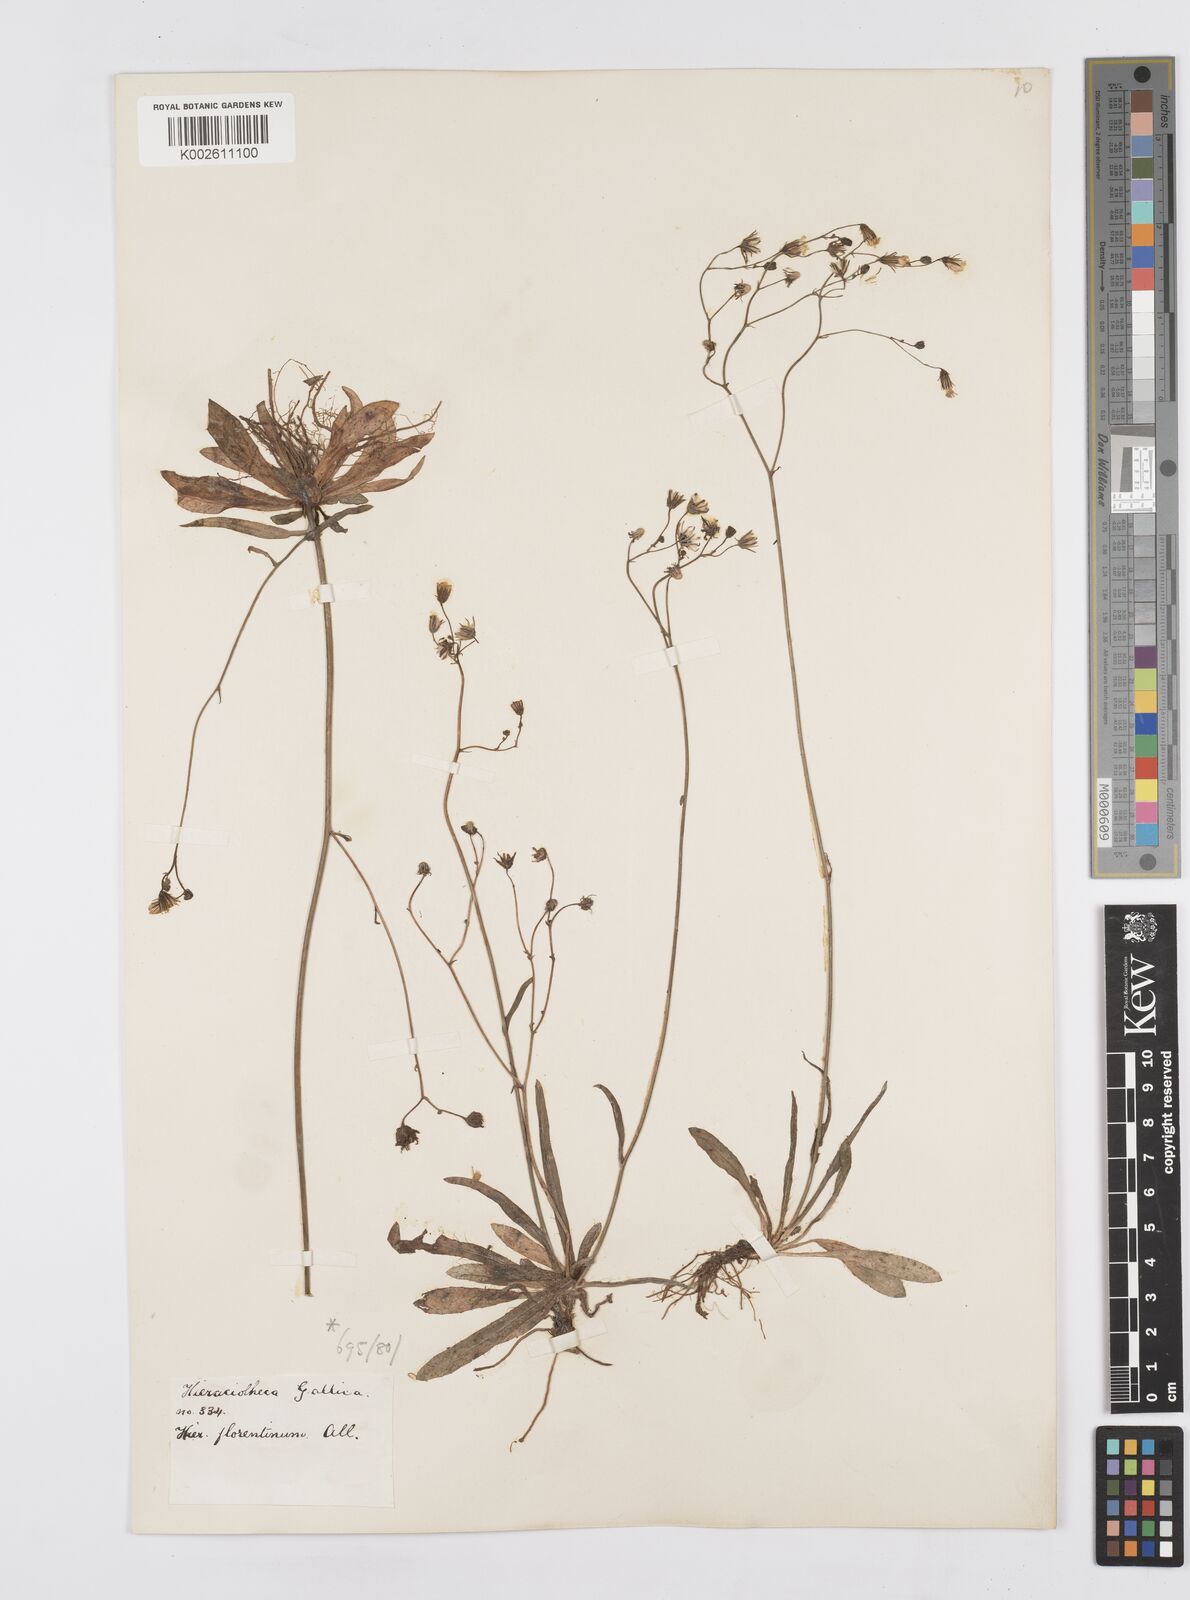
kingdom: Plantae
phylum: Tracheophyta
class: Magnoliopsida
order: Asterales
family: Asteraceae
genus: Pilosella
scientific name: Pilosella piloselloides
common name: Glaucous king-devil
